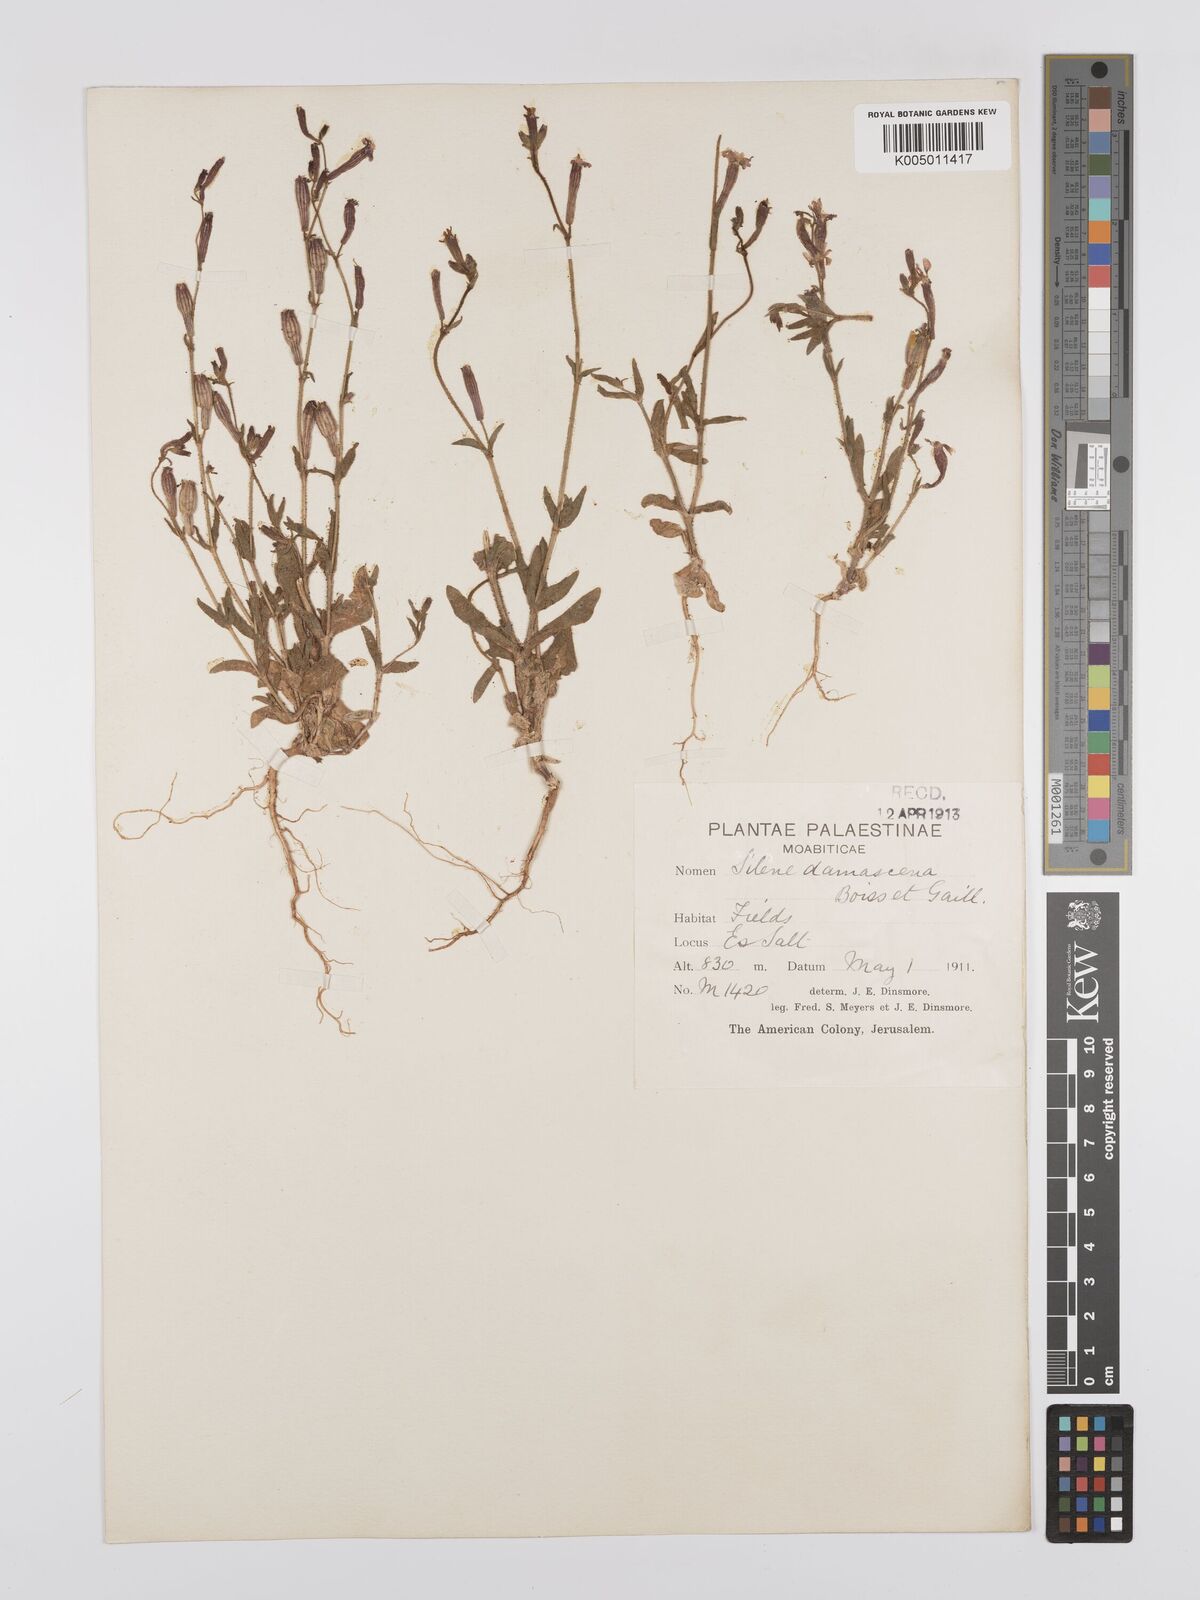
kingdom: Plantae
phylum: Tracheophyta
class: Magnoliopsida
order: Caryophyllales
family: Caryophyllaceae
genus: Silene
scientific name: Silene damascena
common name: Damascus catchfly
